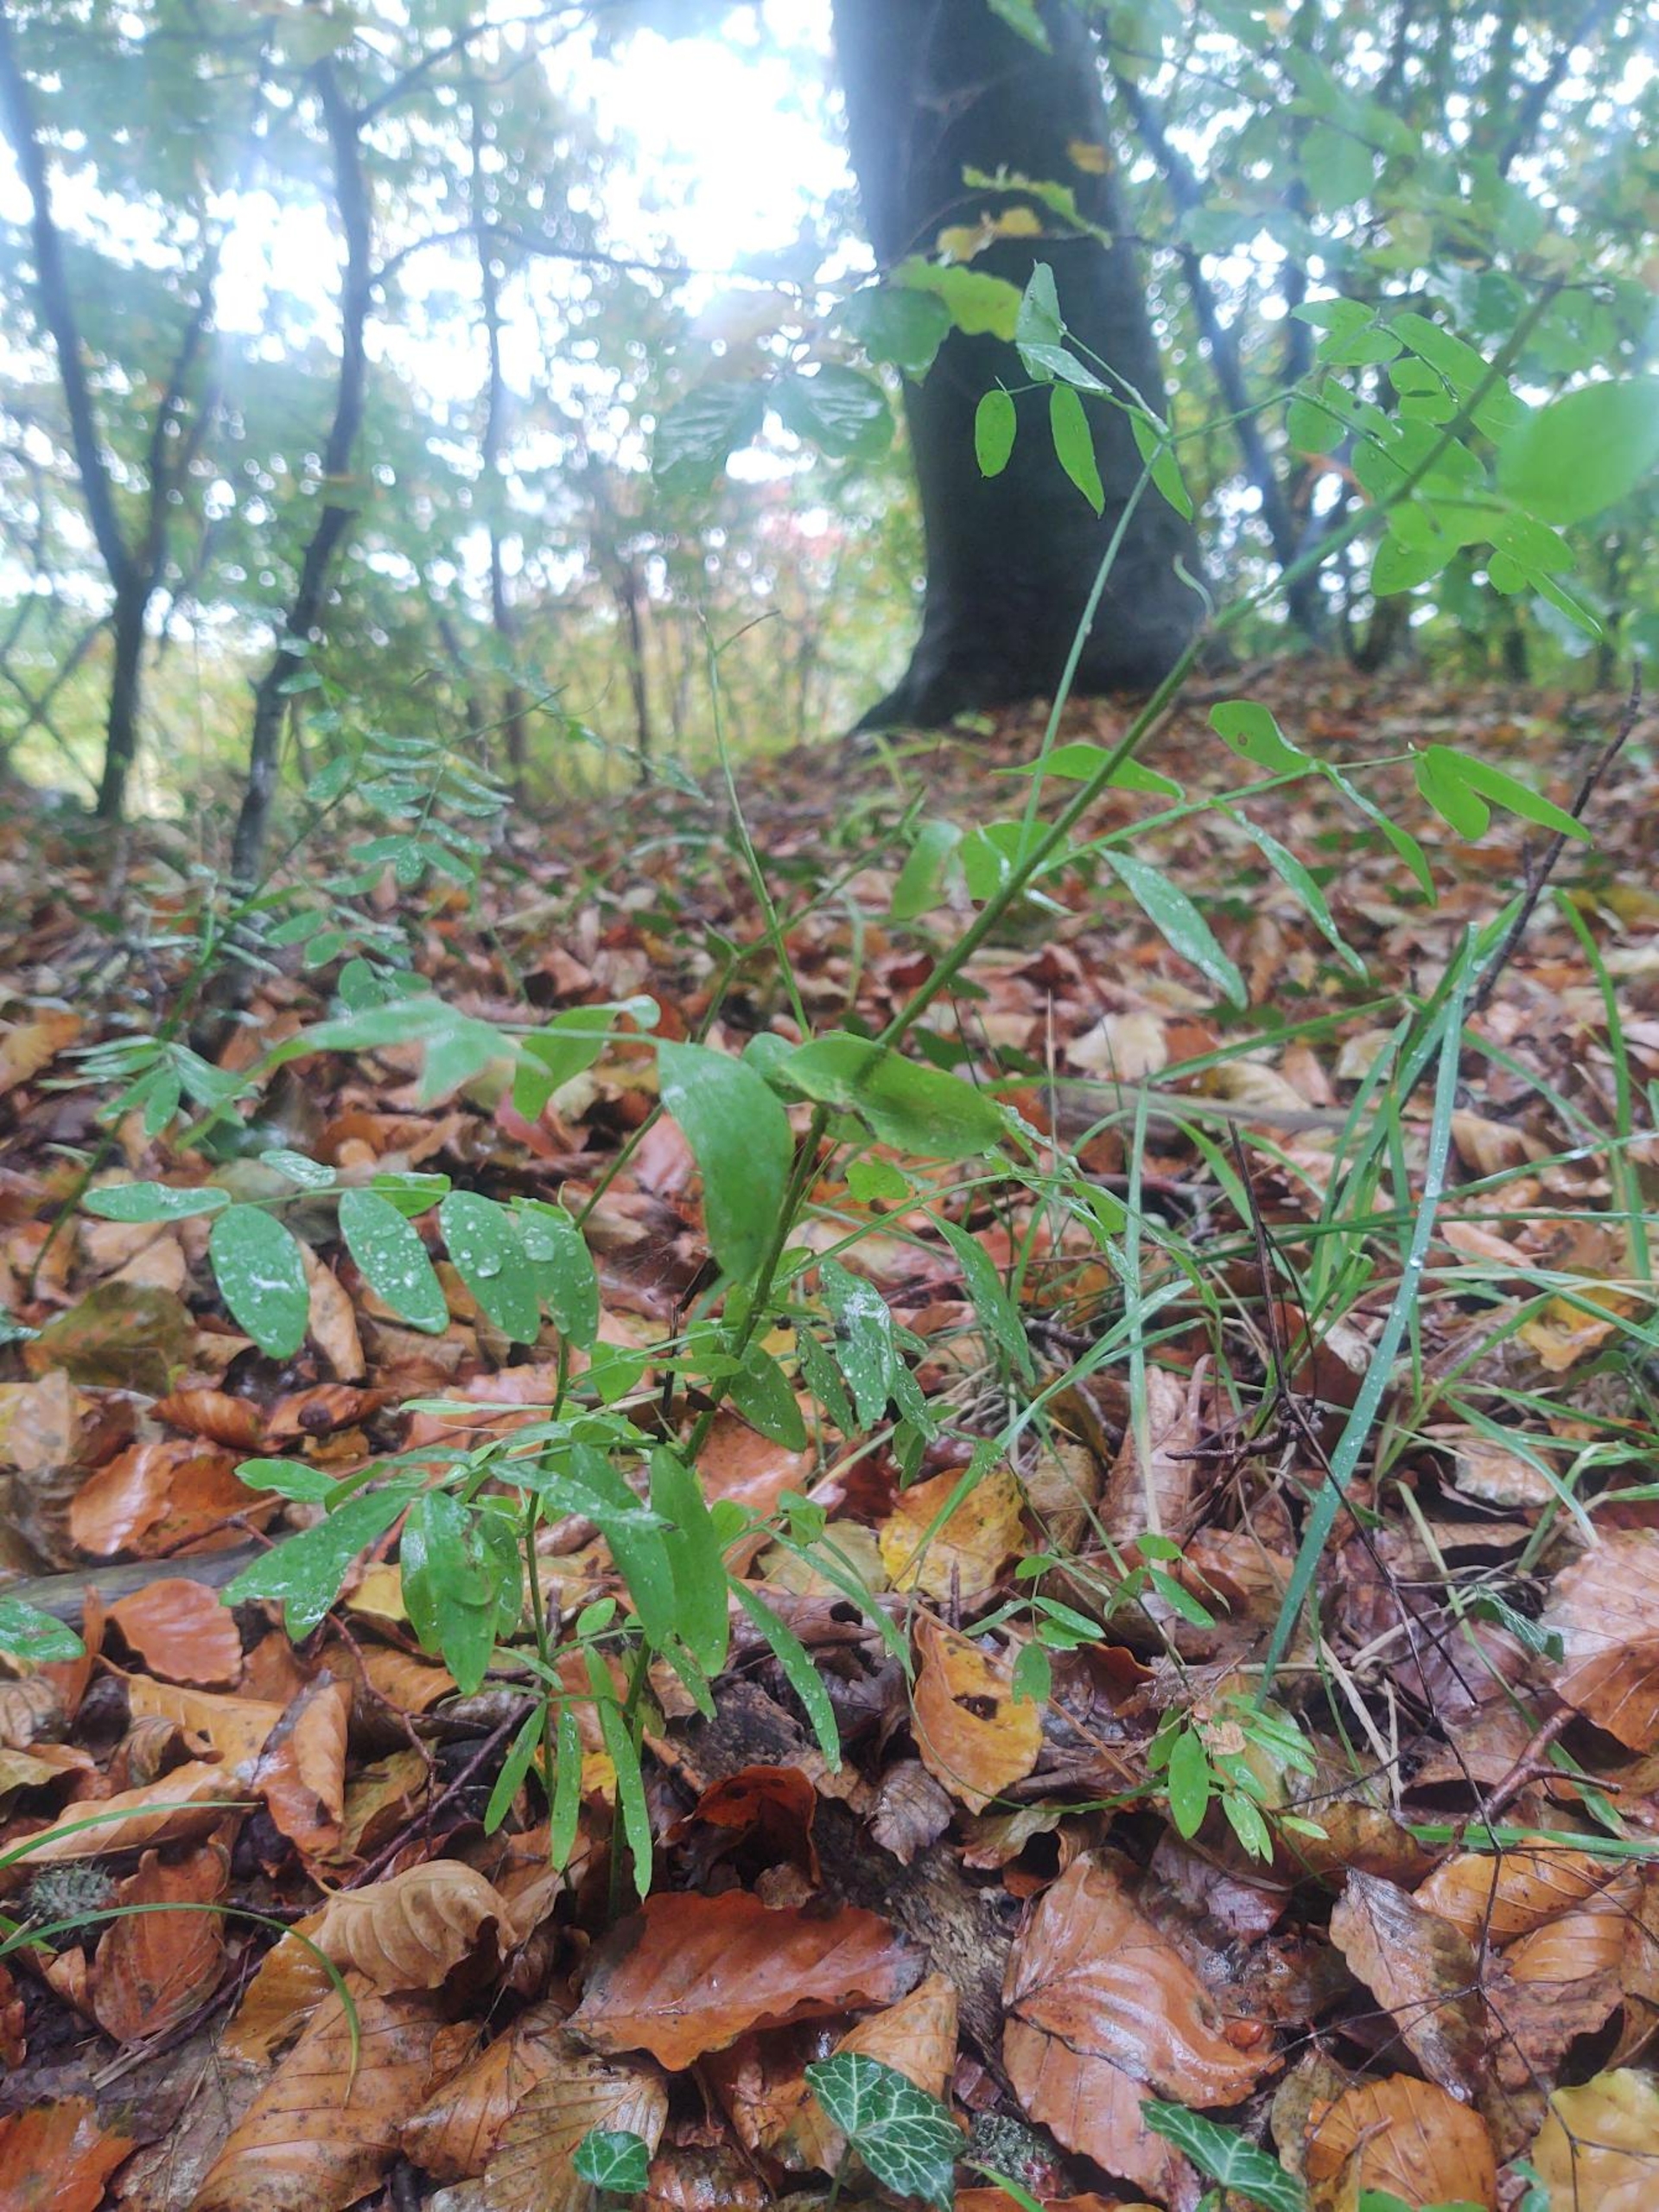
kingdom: Plantae
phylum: Tracheophyta
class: Magnoliopsida
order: Fabales
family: Fabaceae
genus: Lathyrus
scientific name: Lathyrus niger
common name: Sort fladbælg
